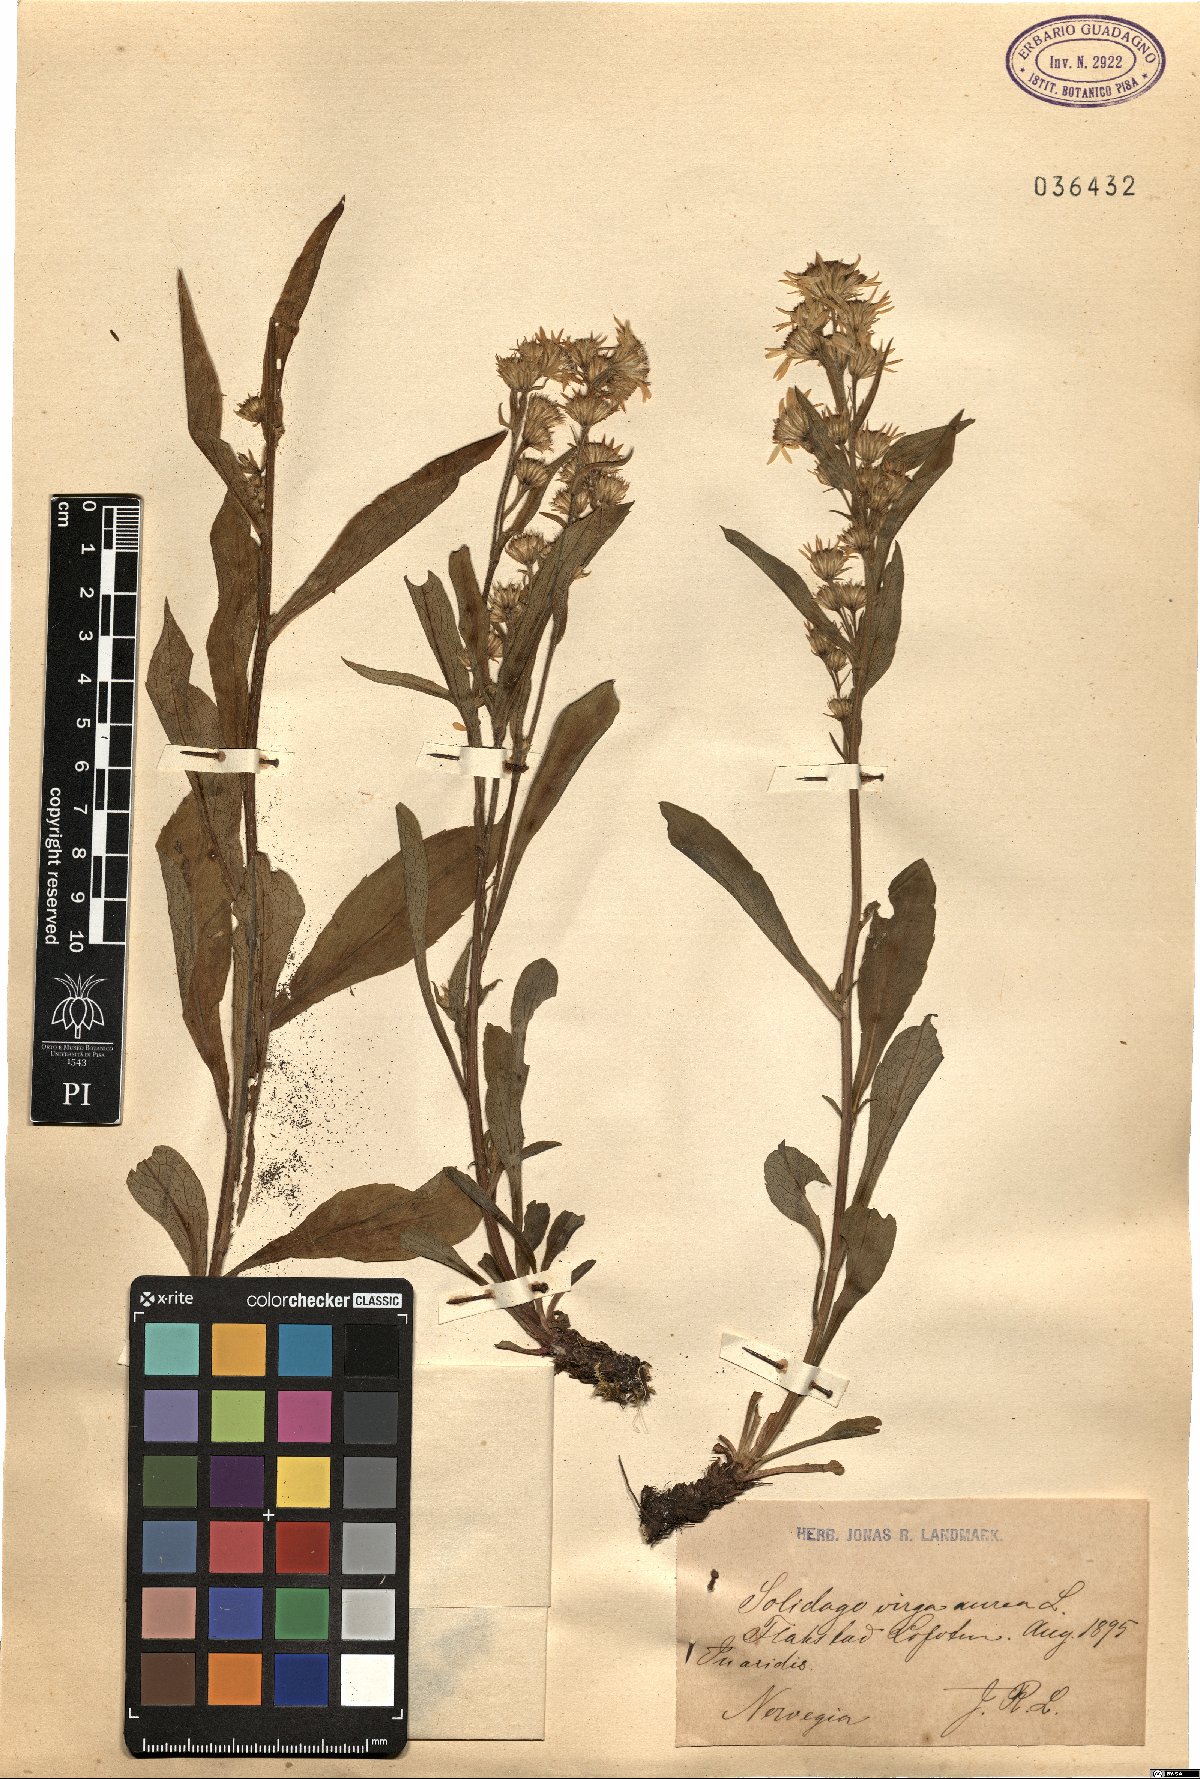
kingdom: Plantae
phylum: Tracheophyta
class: Magnoliopsida
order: Asterales
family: Asteraceae
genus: Solidago
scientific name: Solidago virgaurea
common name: Goldenrod
